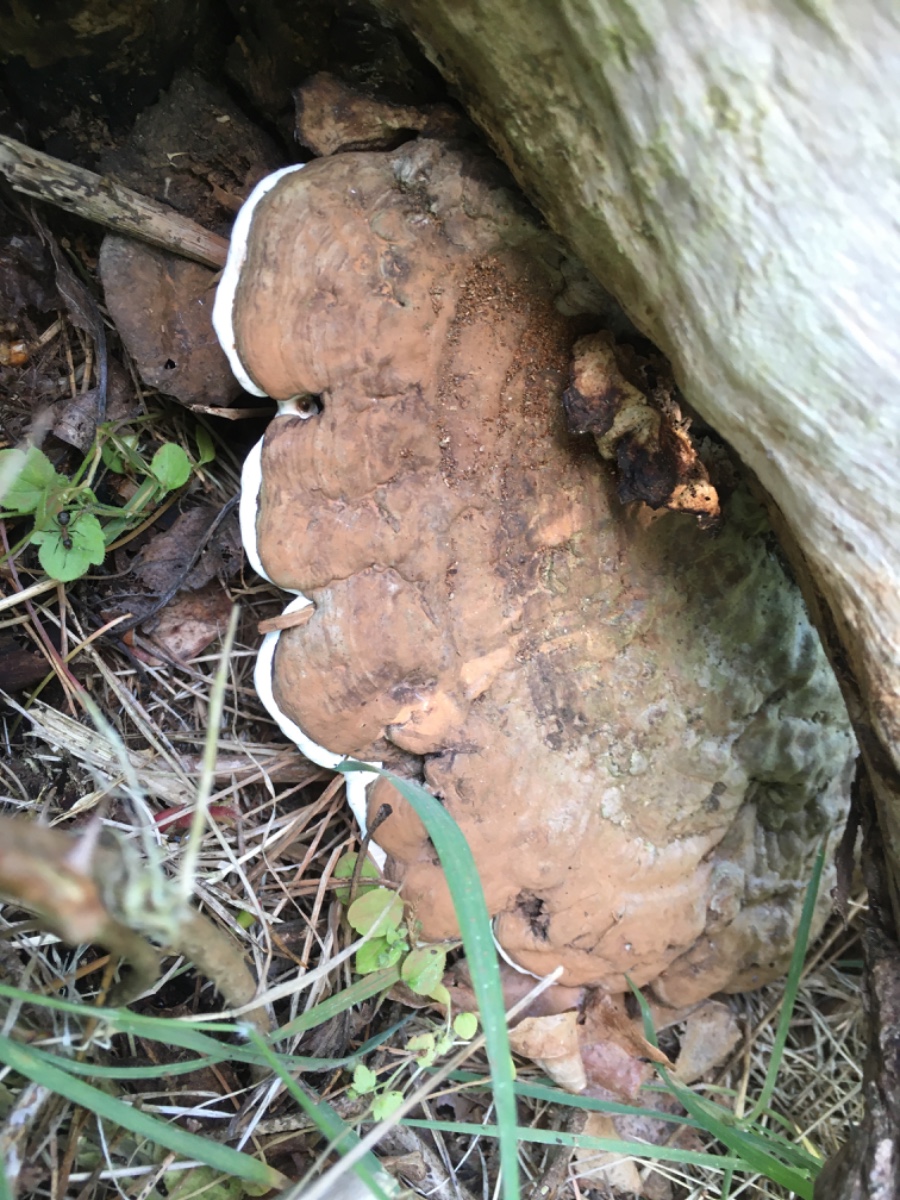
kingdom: Fungi
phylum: Basidiomycota
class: Agaricomycetes
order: Polyporales
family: Polyporaceae
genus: Ganoderma
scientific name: Ganoderma applanatum
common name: flad lakporesvamp
